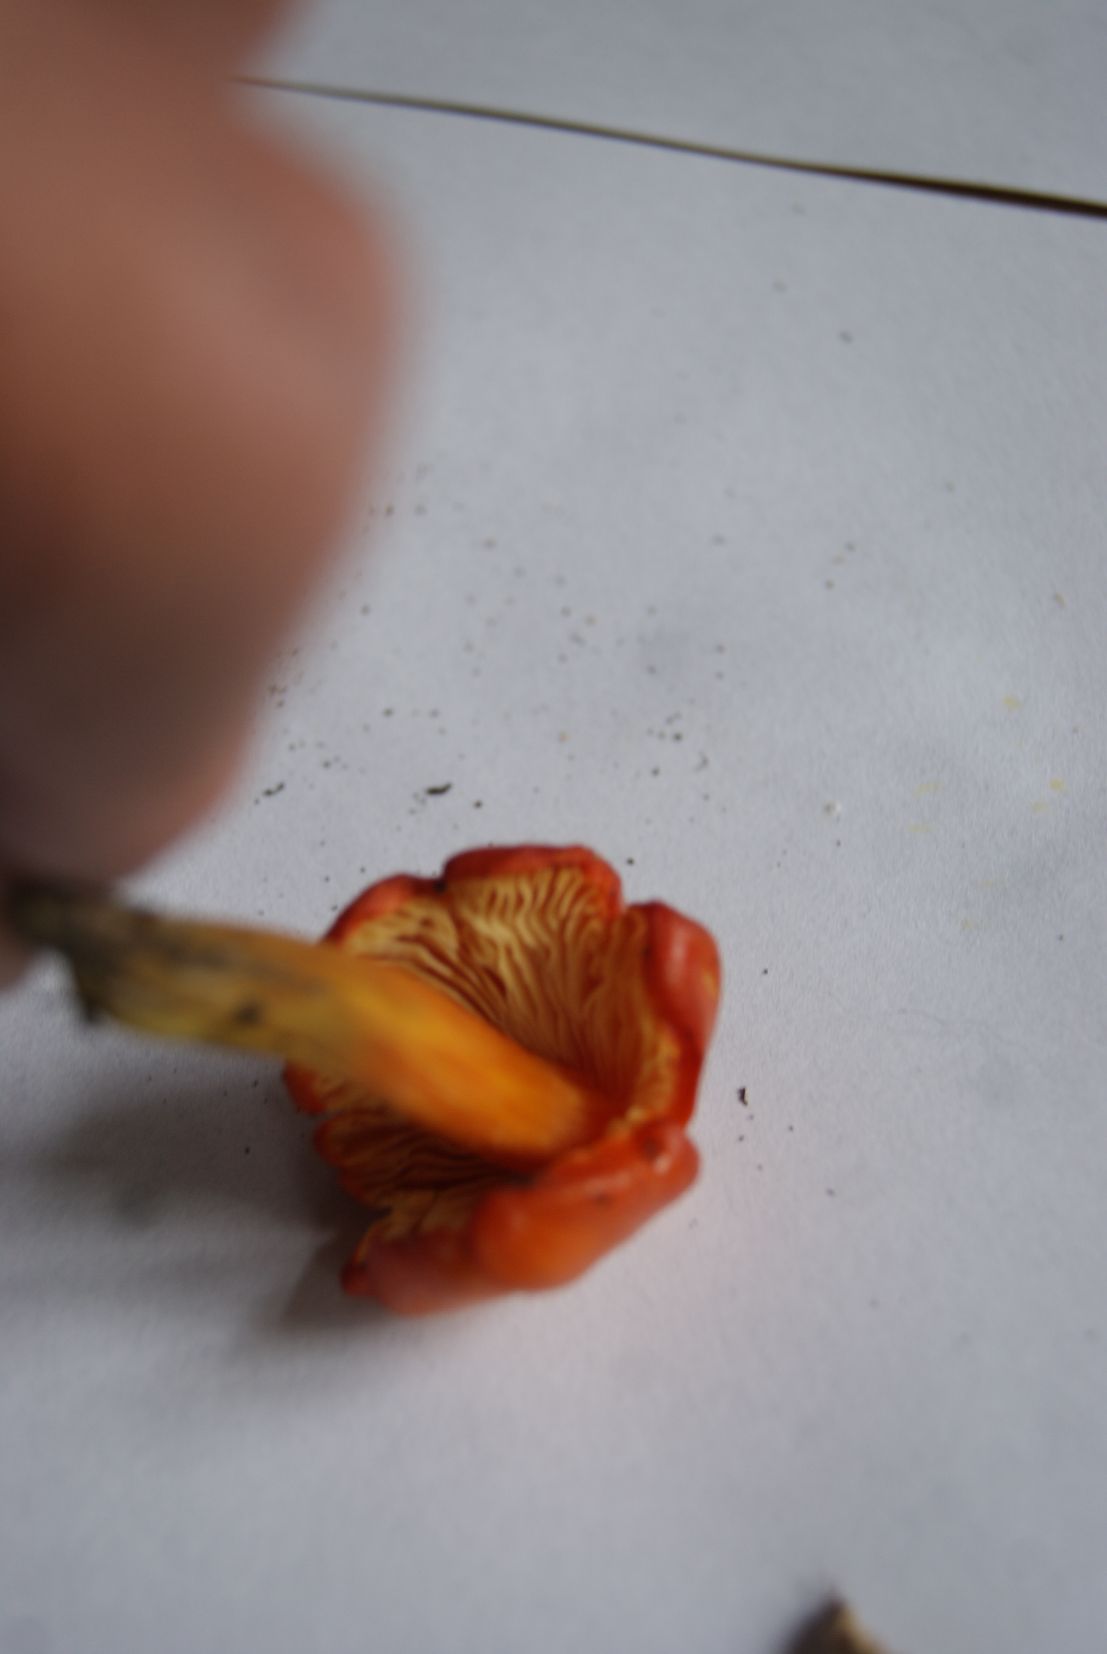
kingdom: Fungi
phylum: Basidiomycota
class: Agaricomycetes
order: Agaricales
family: Hygrophoraceae
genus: Hygrocybe
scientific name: Hygrocybe acutoconica
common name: spidspuklet vokshat
